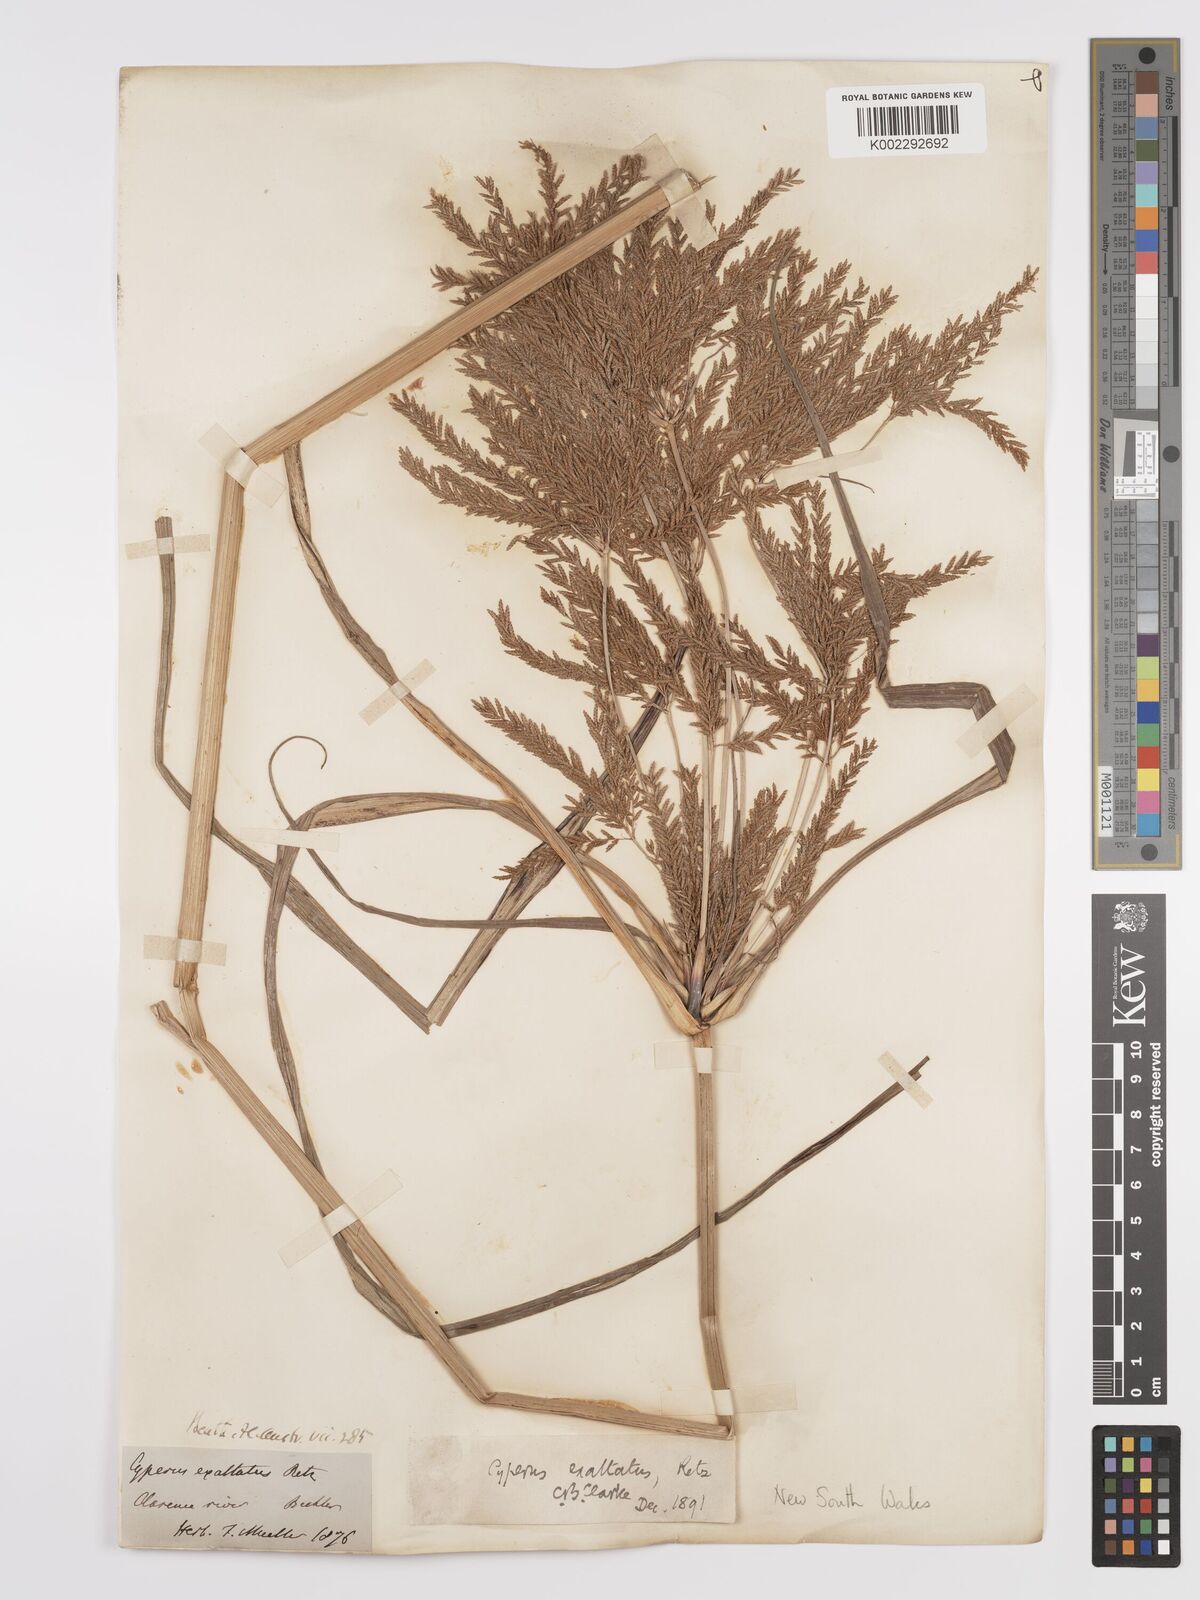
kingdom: Plantae
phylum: Tracheophyta
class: Liliopsida
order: Poales
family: Cyperaceae
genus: Cyperus
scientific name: Cyperus exaltatus
